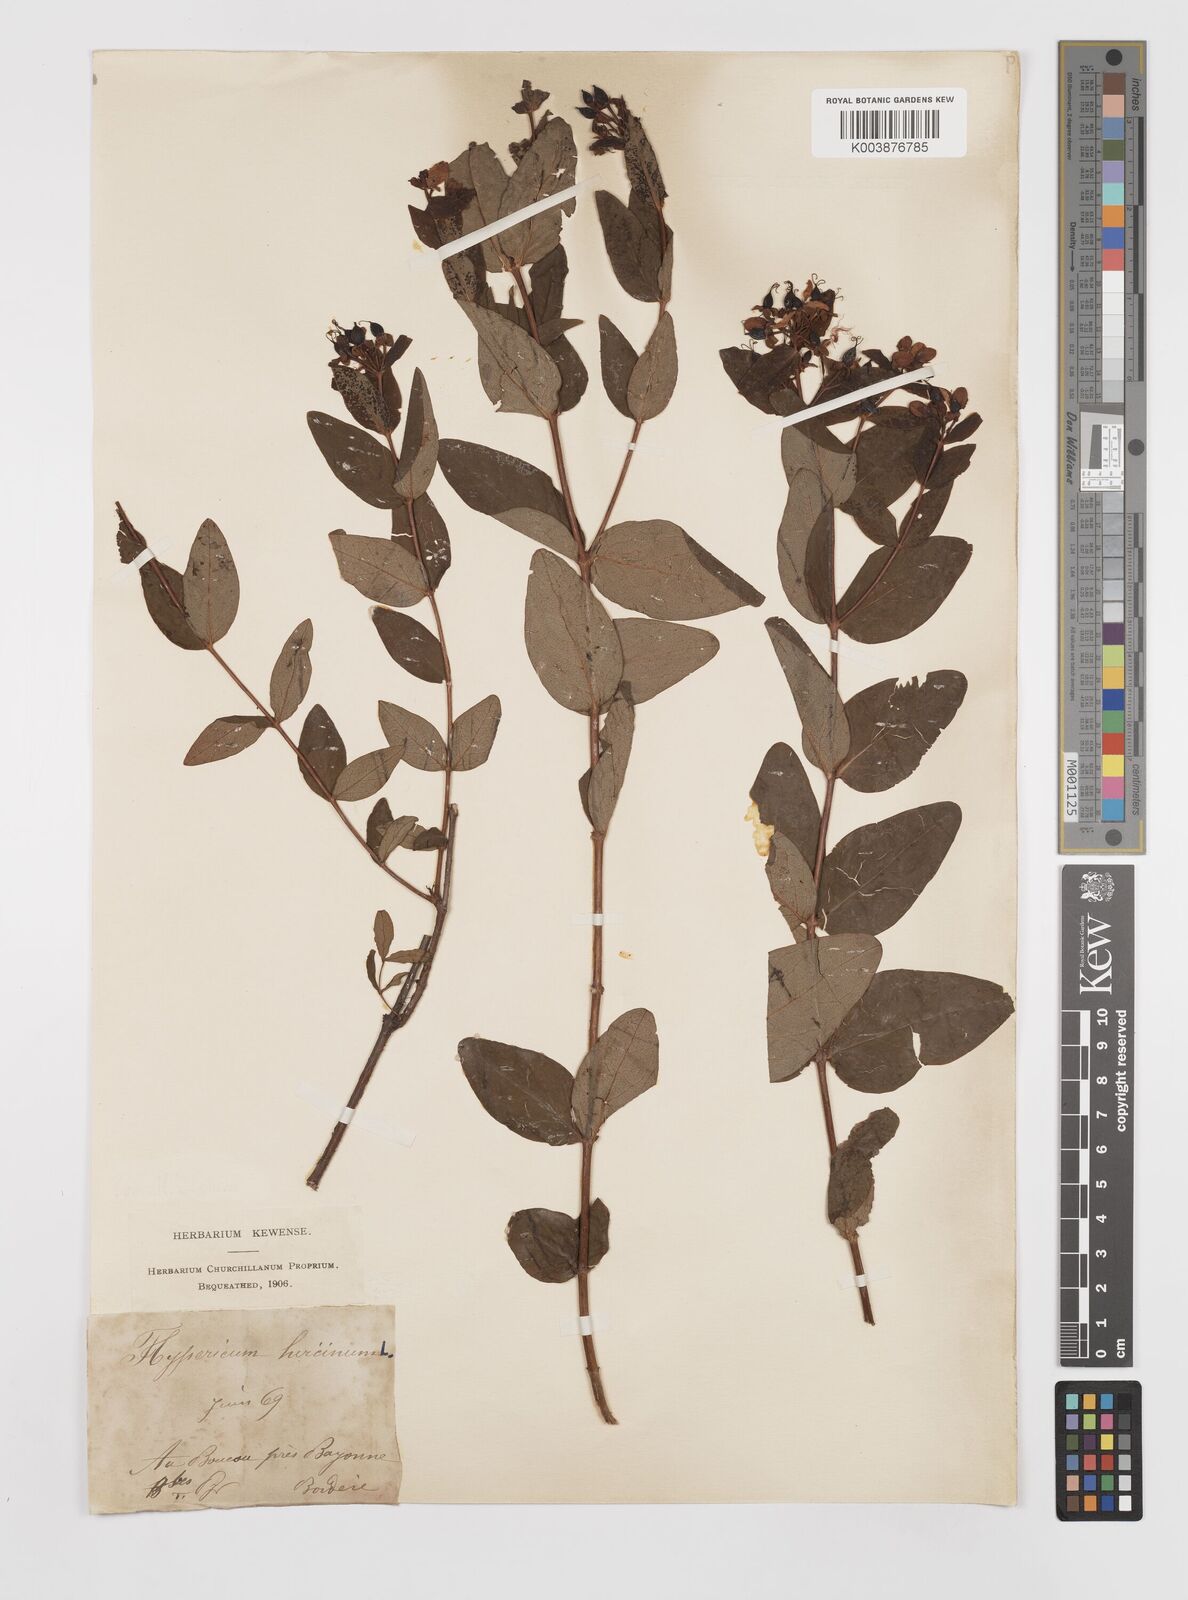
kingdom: Plantae
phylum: Tracheophyta
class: Magnoliopsida
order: Malpighiales
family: Hypericaceae
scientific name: Hypericaceae
